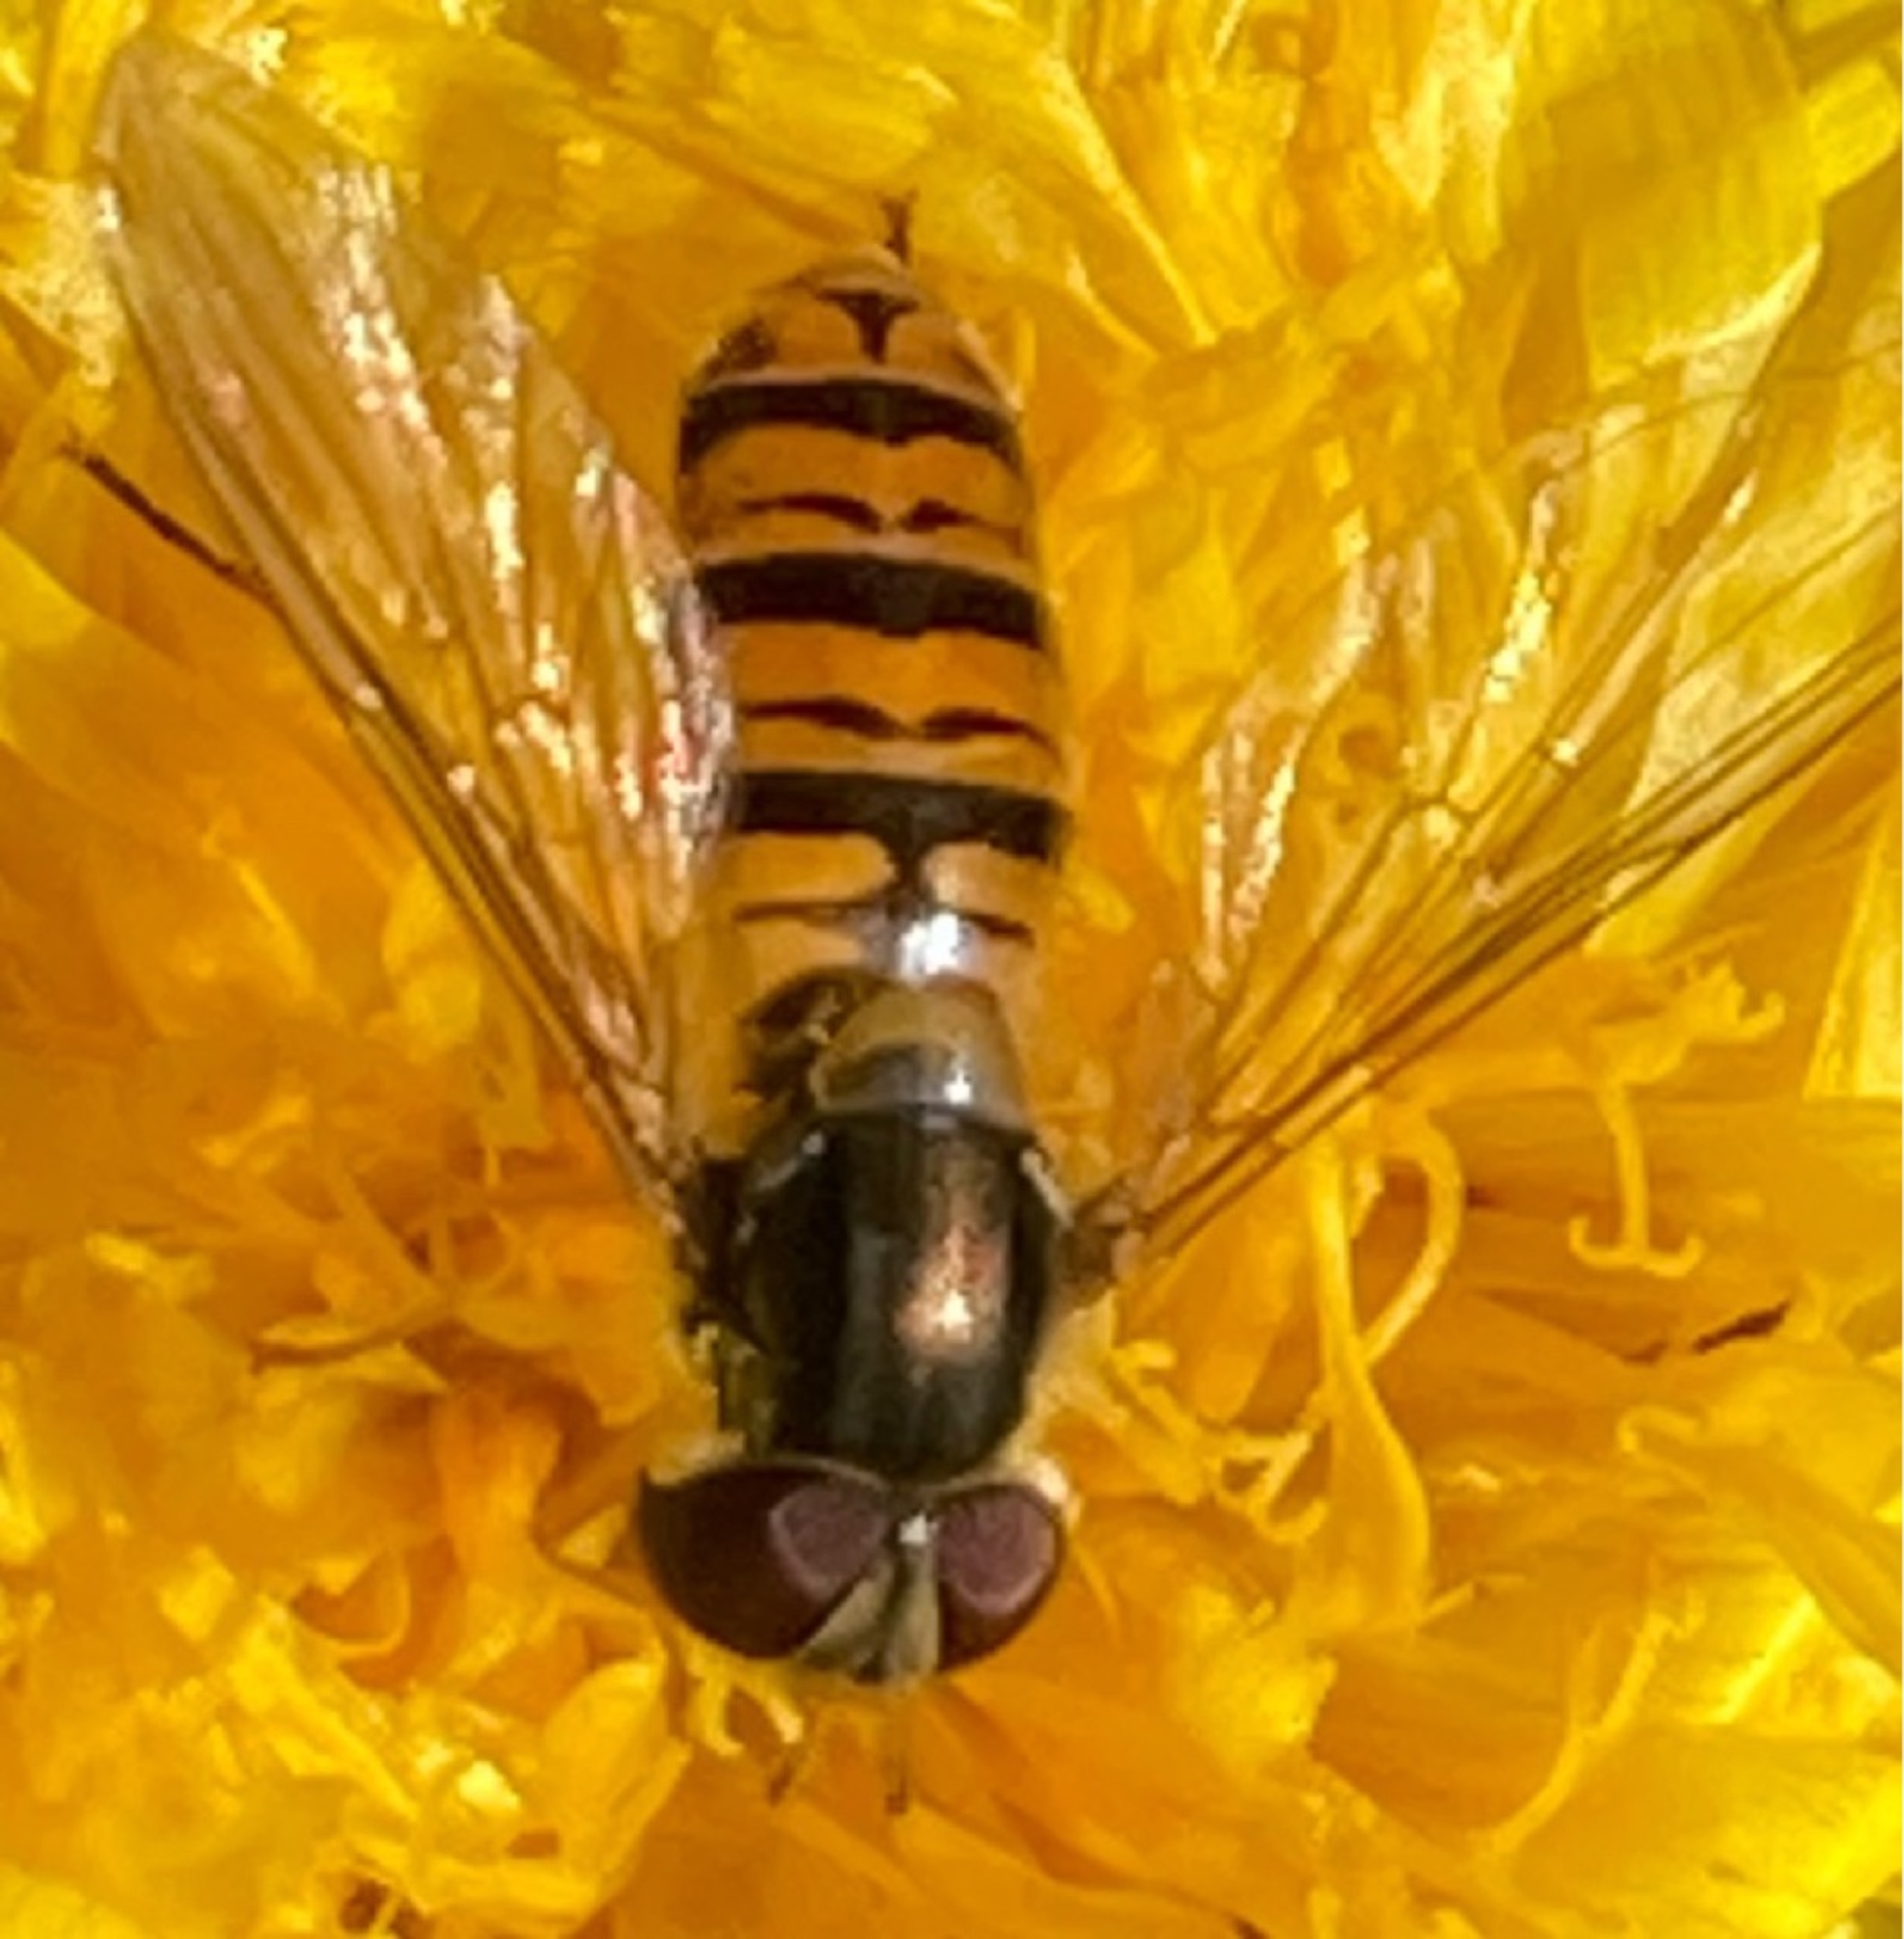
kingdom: Animalia
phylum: Arthropoda
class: Insecta
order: Diptera
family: Syrphidae
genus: Episyrphus
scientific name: Episyrphus balteatus
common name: Dobbeltbåndet svirreflue
